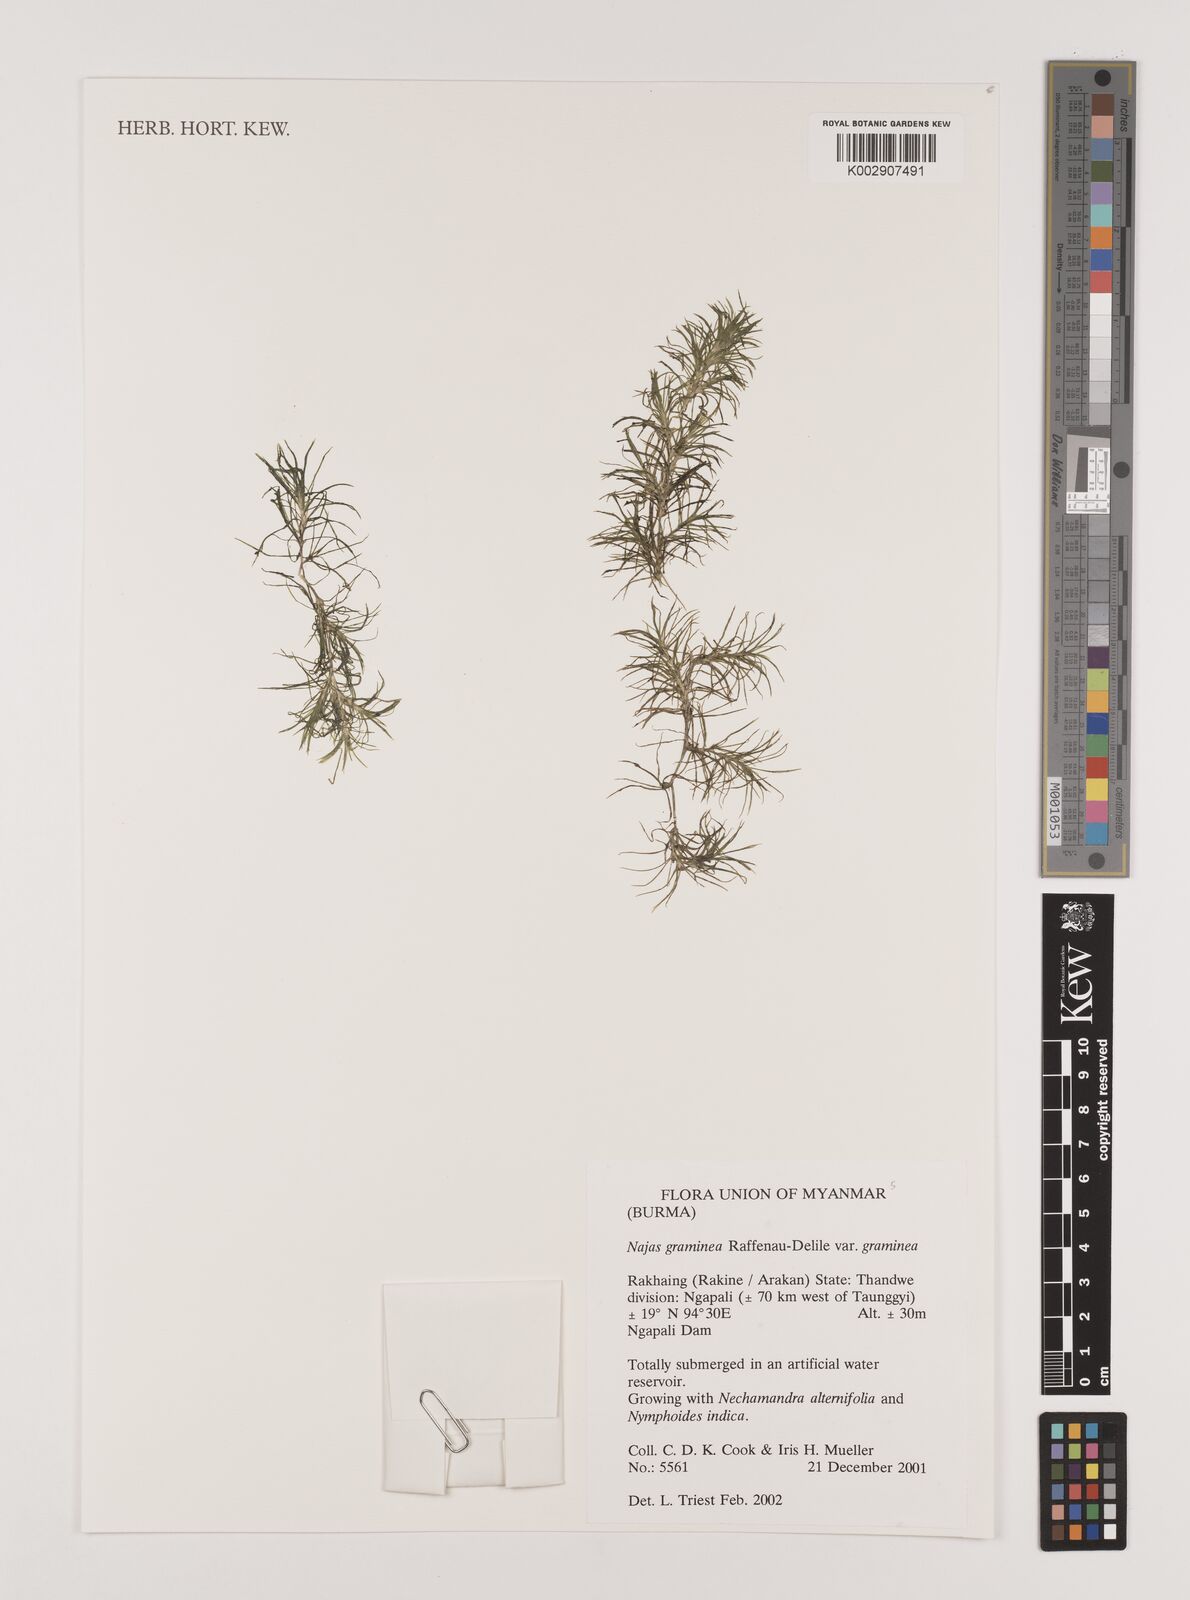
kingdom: Plantae
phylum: Tracheophyta
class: Liliopsida
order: Alismatales
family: Hydrocharitaceae
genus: Najas
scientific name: Najas graminea
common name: Ricefield waternymph
